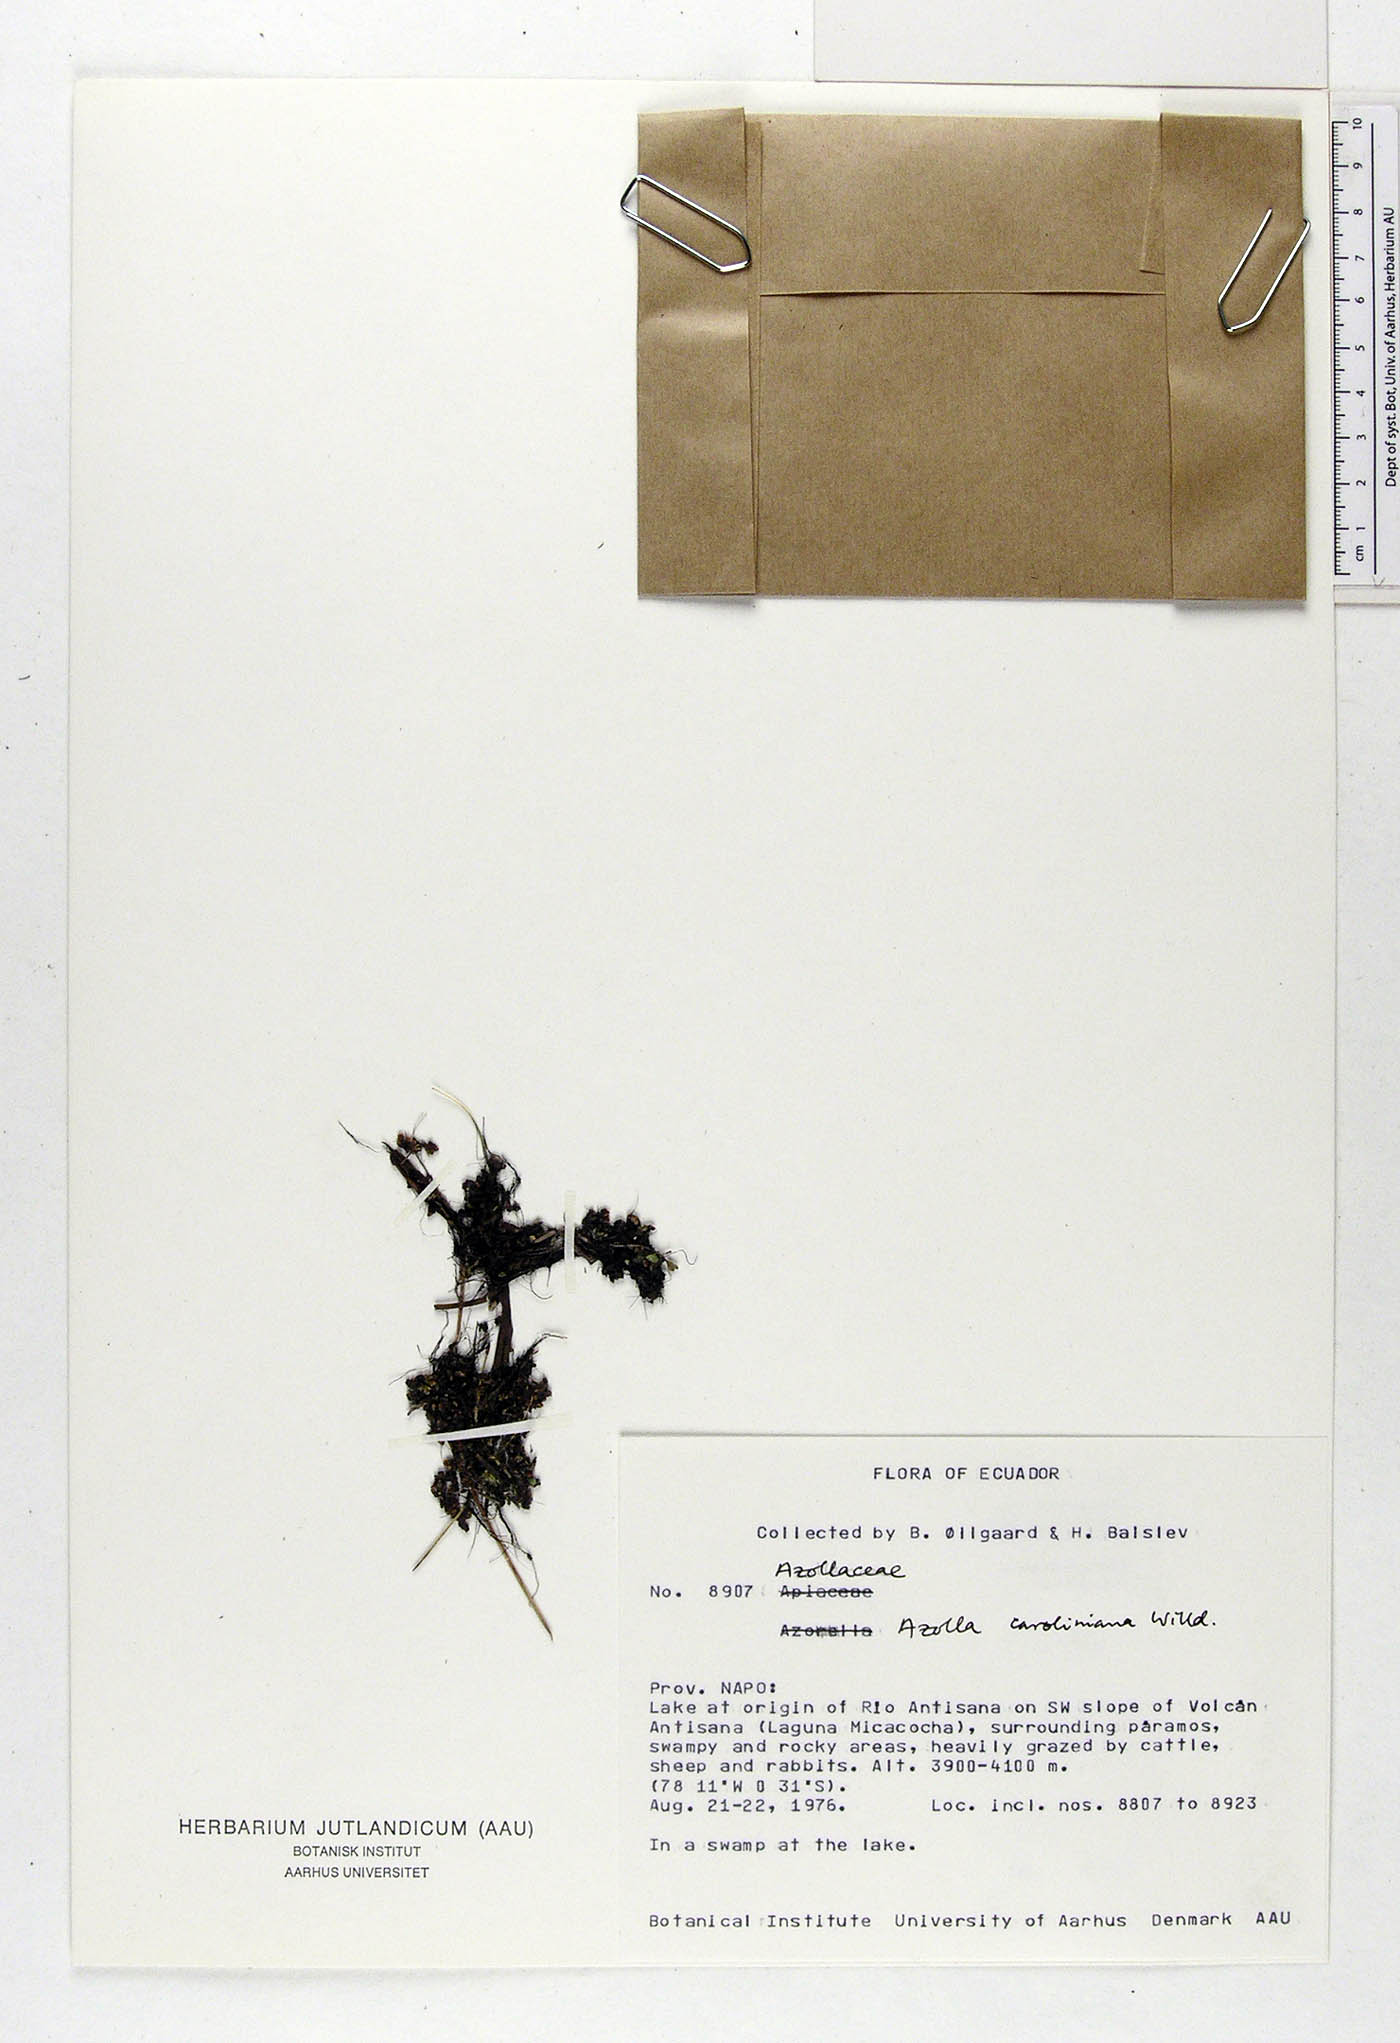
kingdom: Plantae
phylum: Tracheophyta
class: Polypodiopsida
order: Salviniales
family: Salviniaceae
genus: Azolla
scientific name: Azolla caroliniana
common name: Carolina mosquitofern
